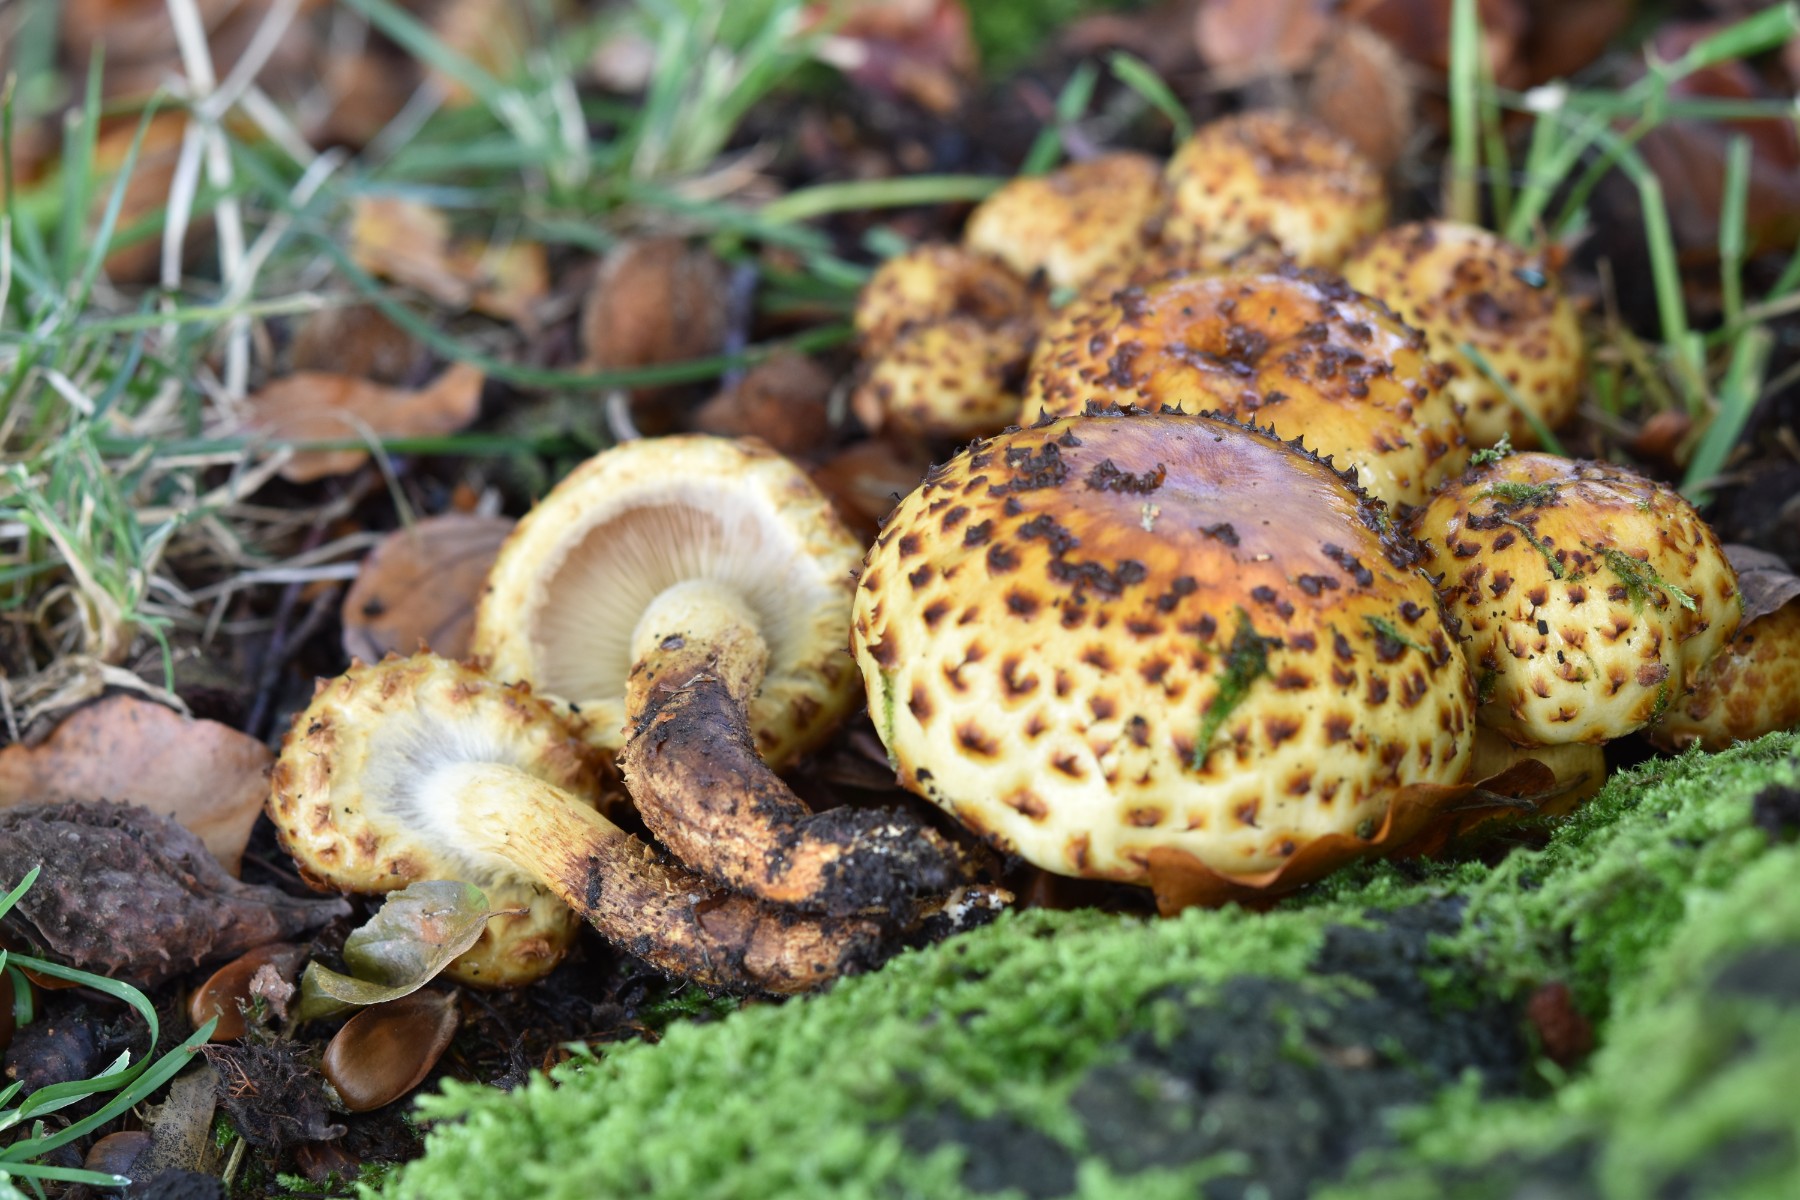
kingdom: Fungi
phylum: Basidiomycota
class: Agaricomycetes
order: Agaricales
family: Strophariaceae
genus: Pholiota
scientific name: Pholiota jahnii
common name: slimet skælhat
